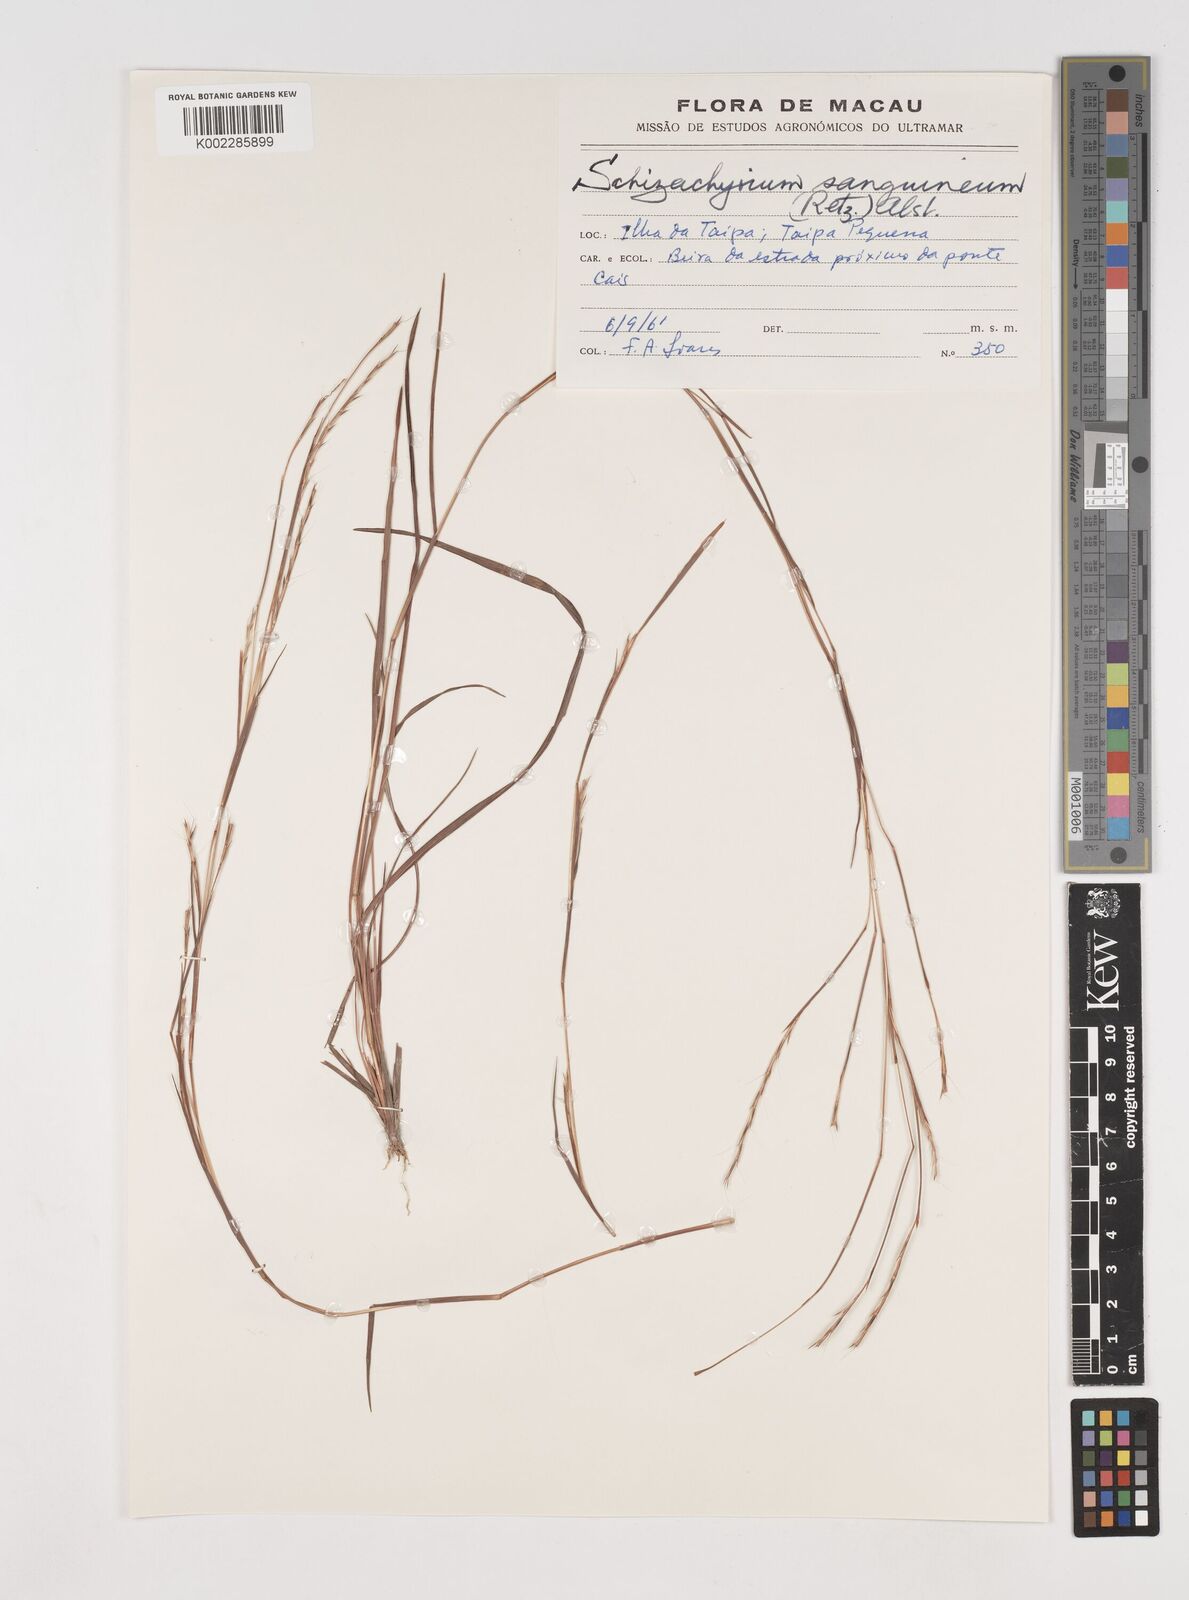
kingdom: Plantae
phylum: Tracheophyta
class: Liliopsida
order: Poales
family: Poaceae
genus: Schizachyrium
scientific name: Schizachyrium sanguineum
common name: Crimson bluestem
